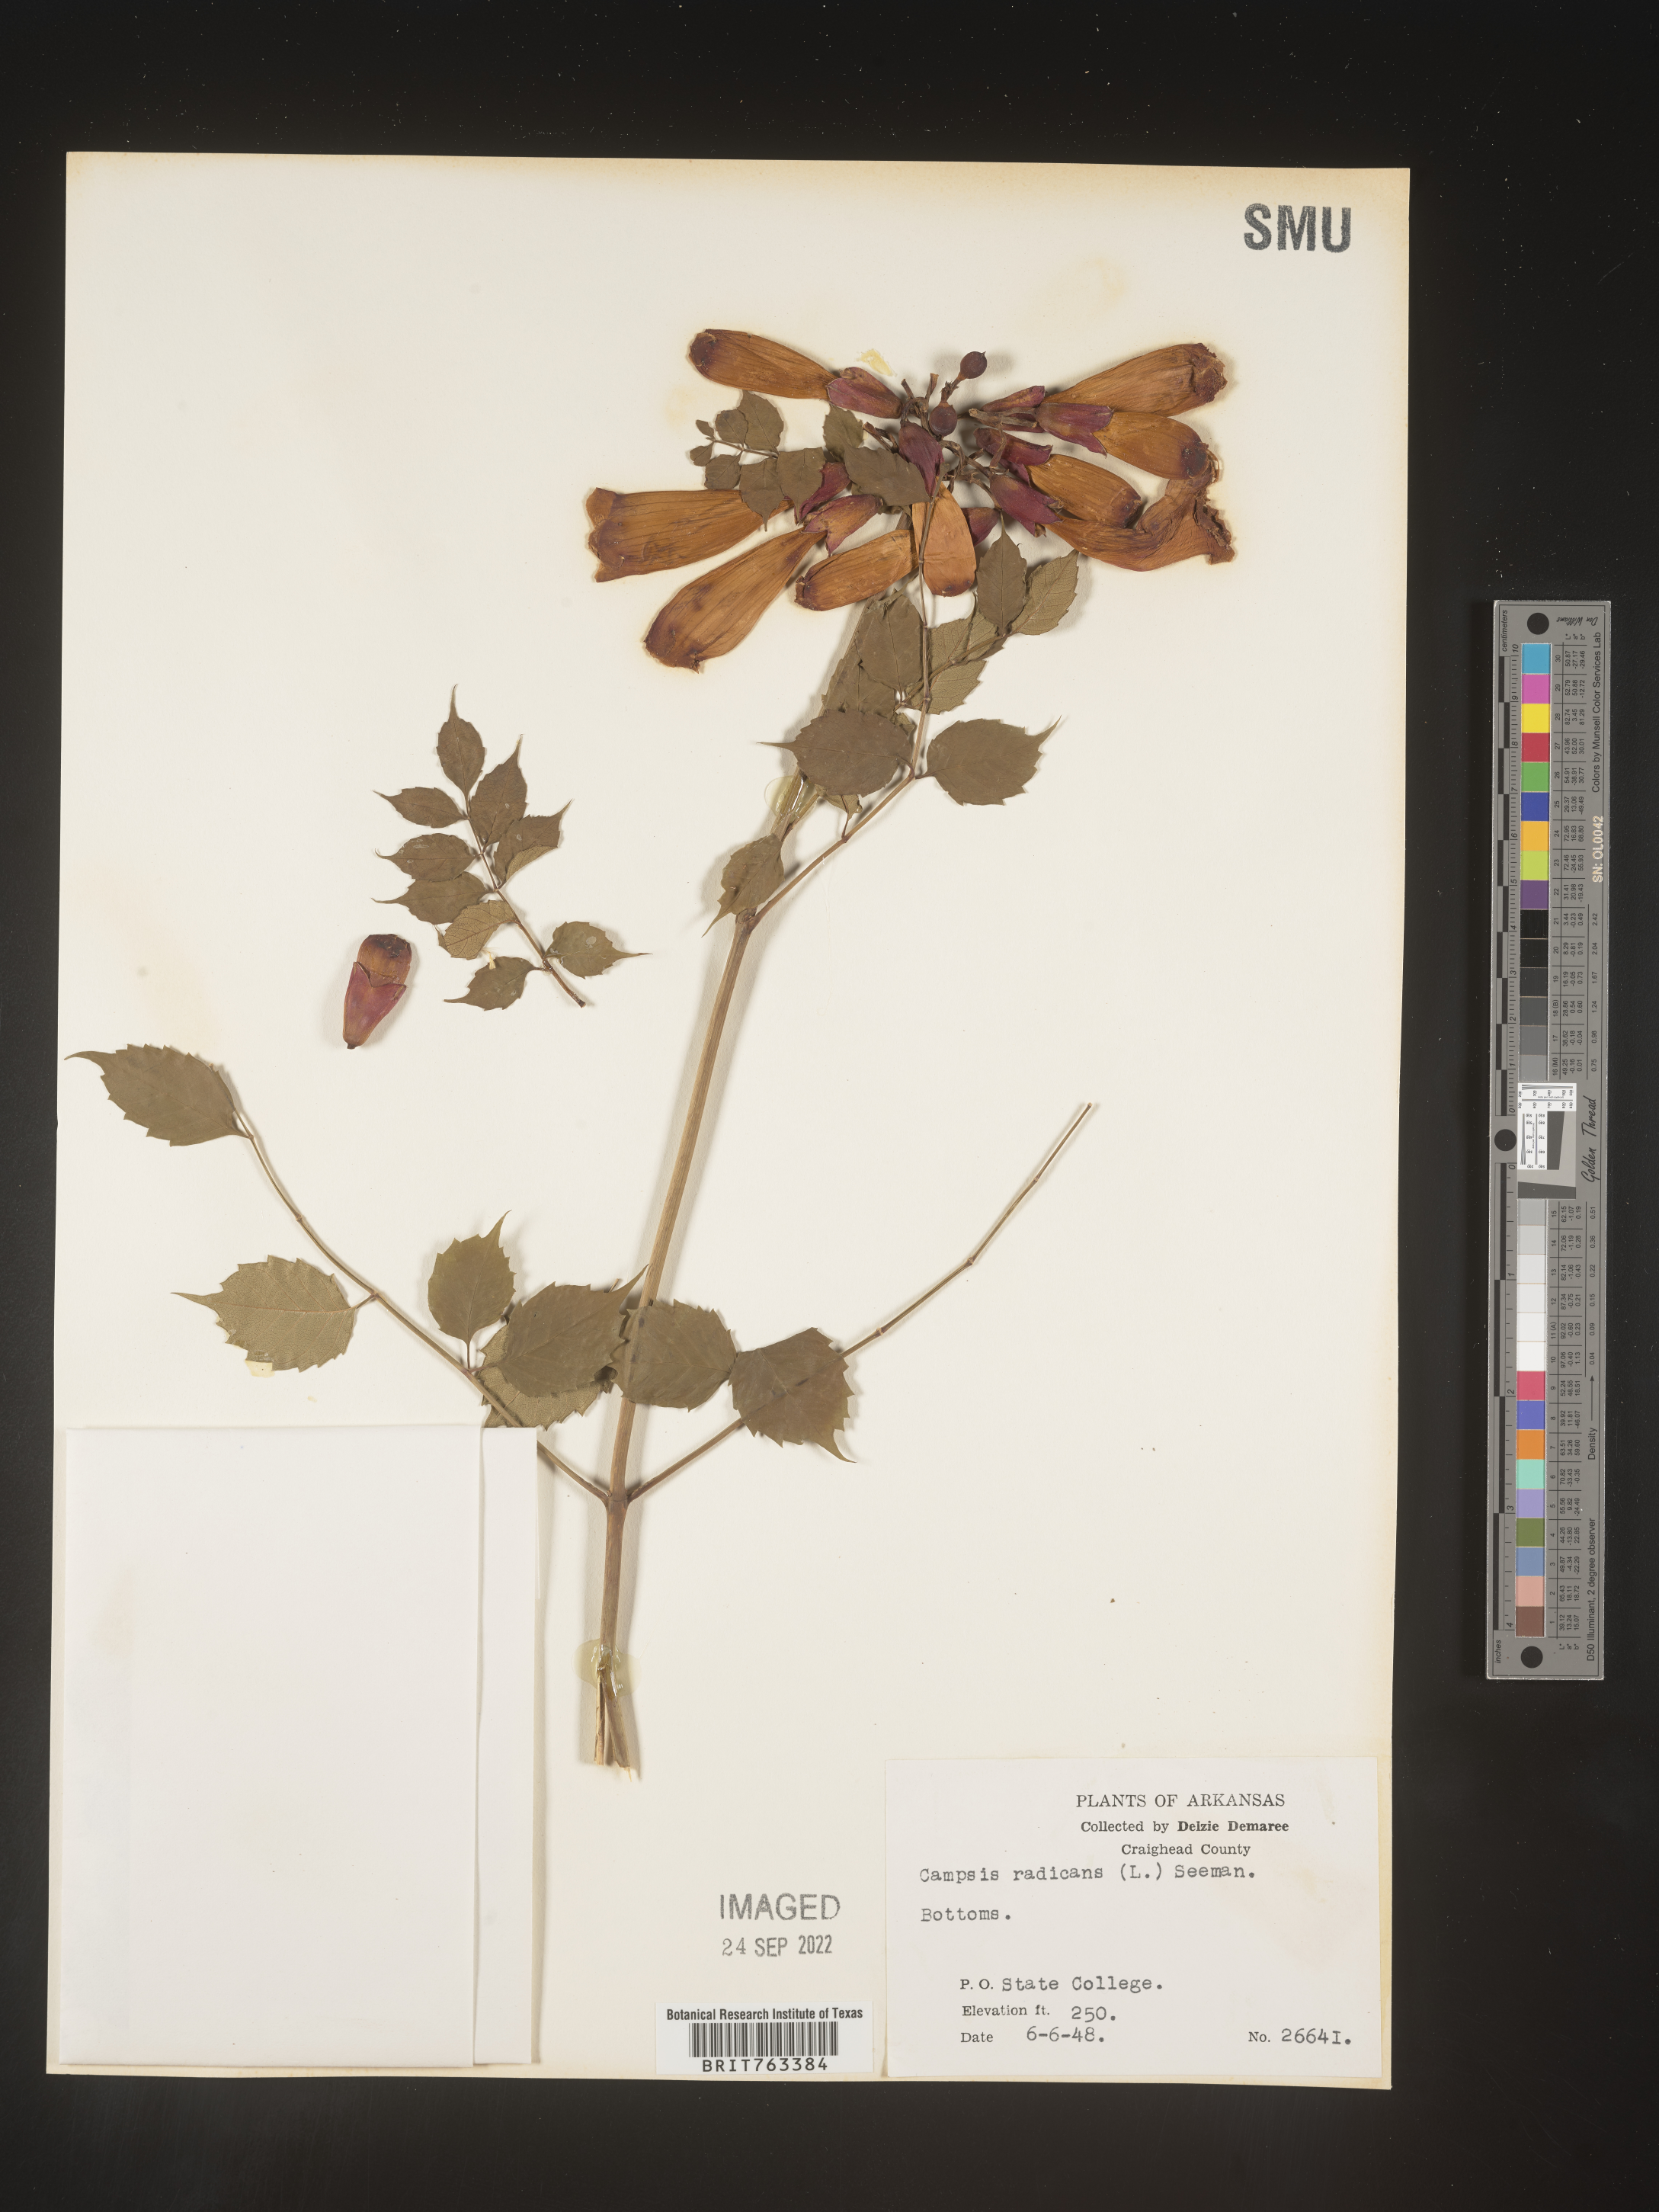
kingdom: Plantae
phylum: Tracheophyta
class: Magnoliopsida
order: Lamiales
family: Bignoniaceae
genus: Campsis
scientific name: Campsis radicans
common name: Trumpet-creeper
